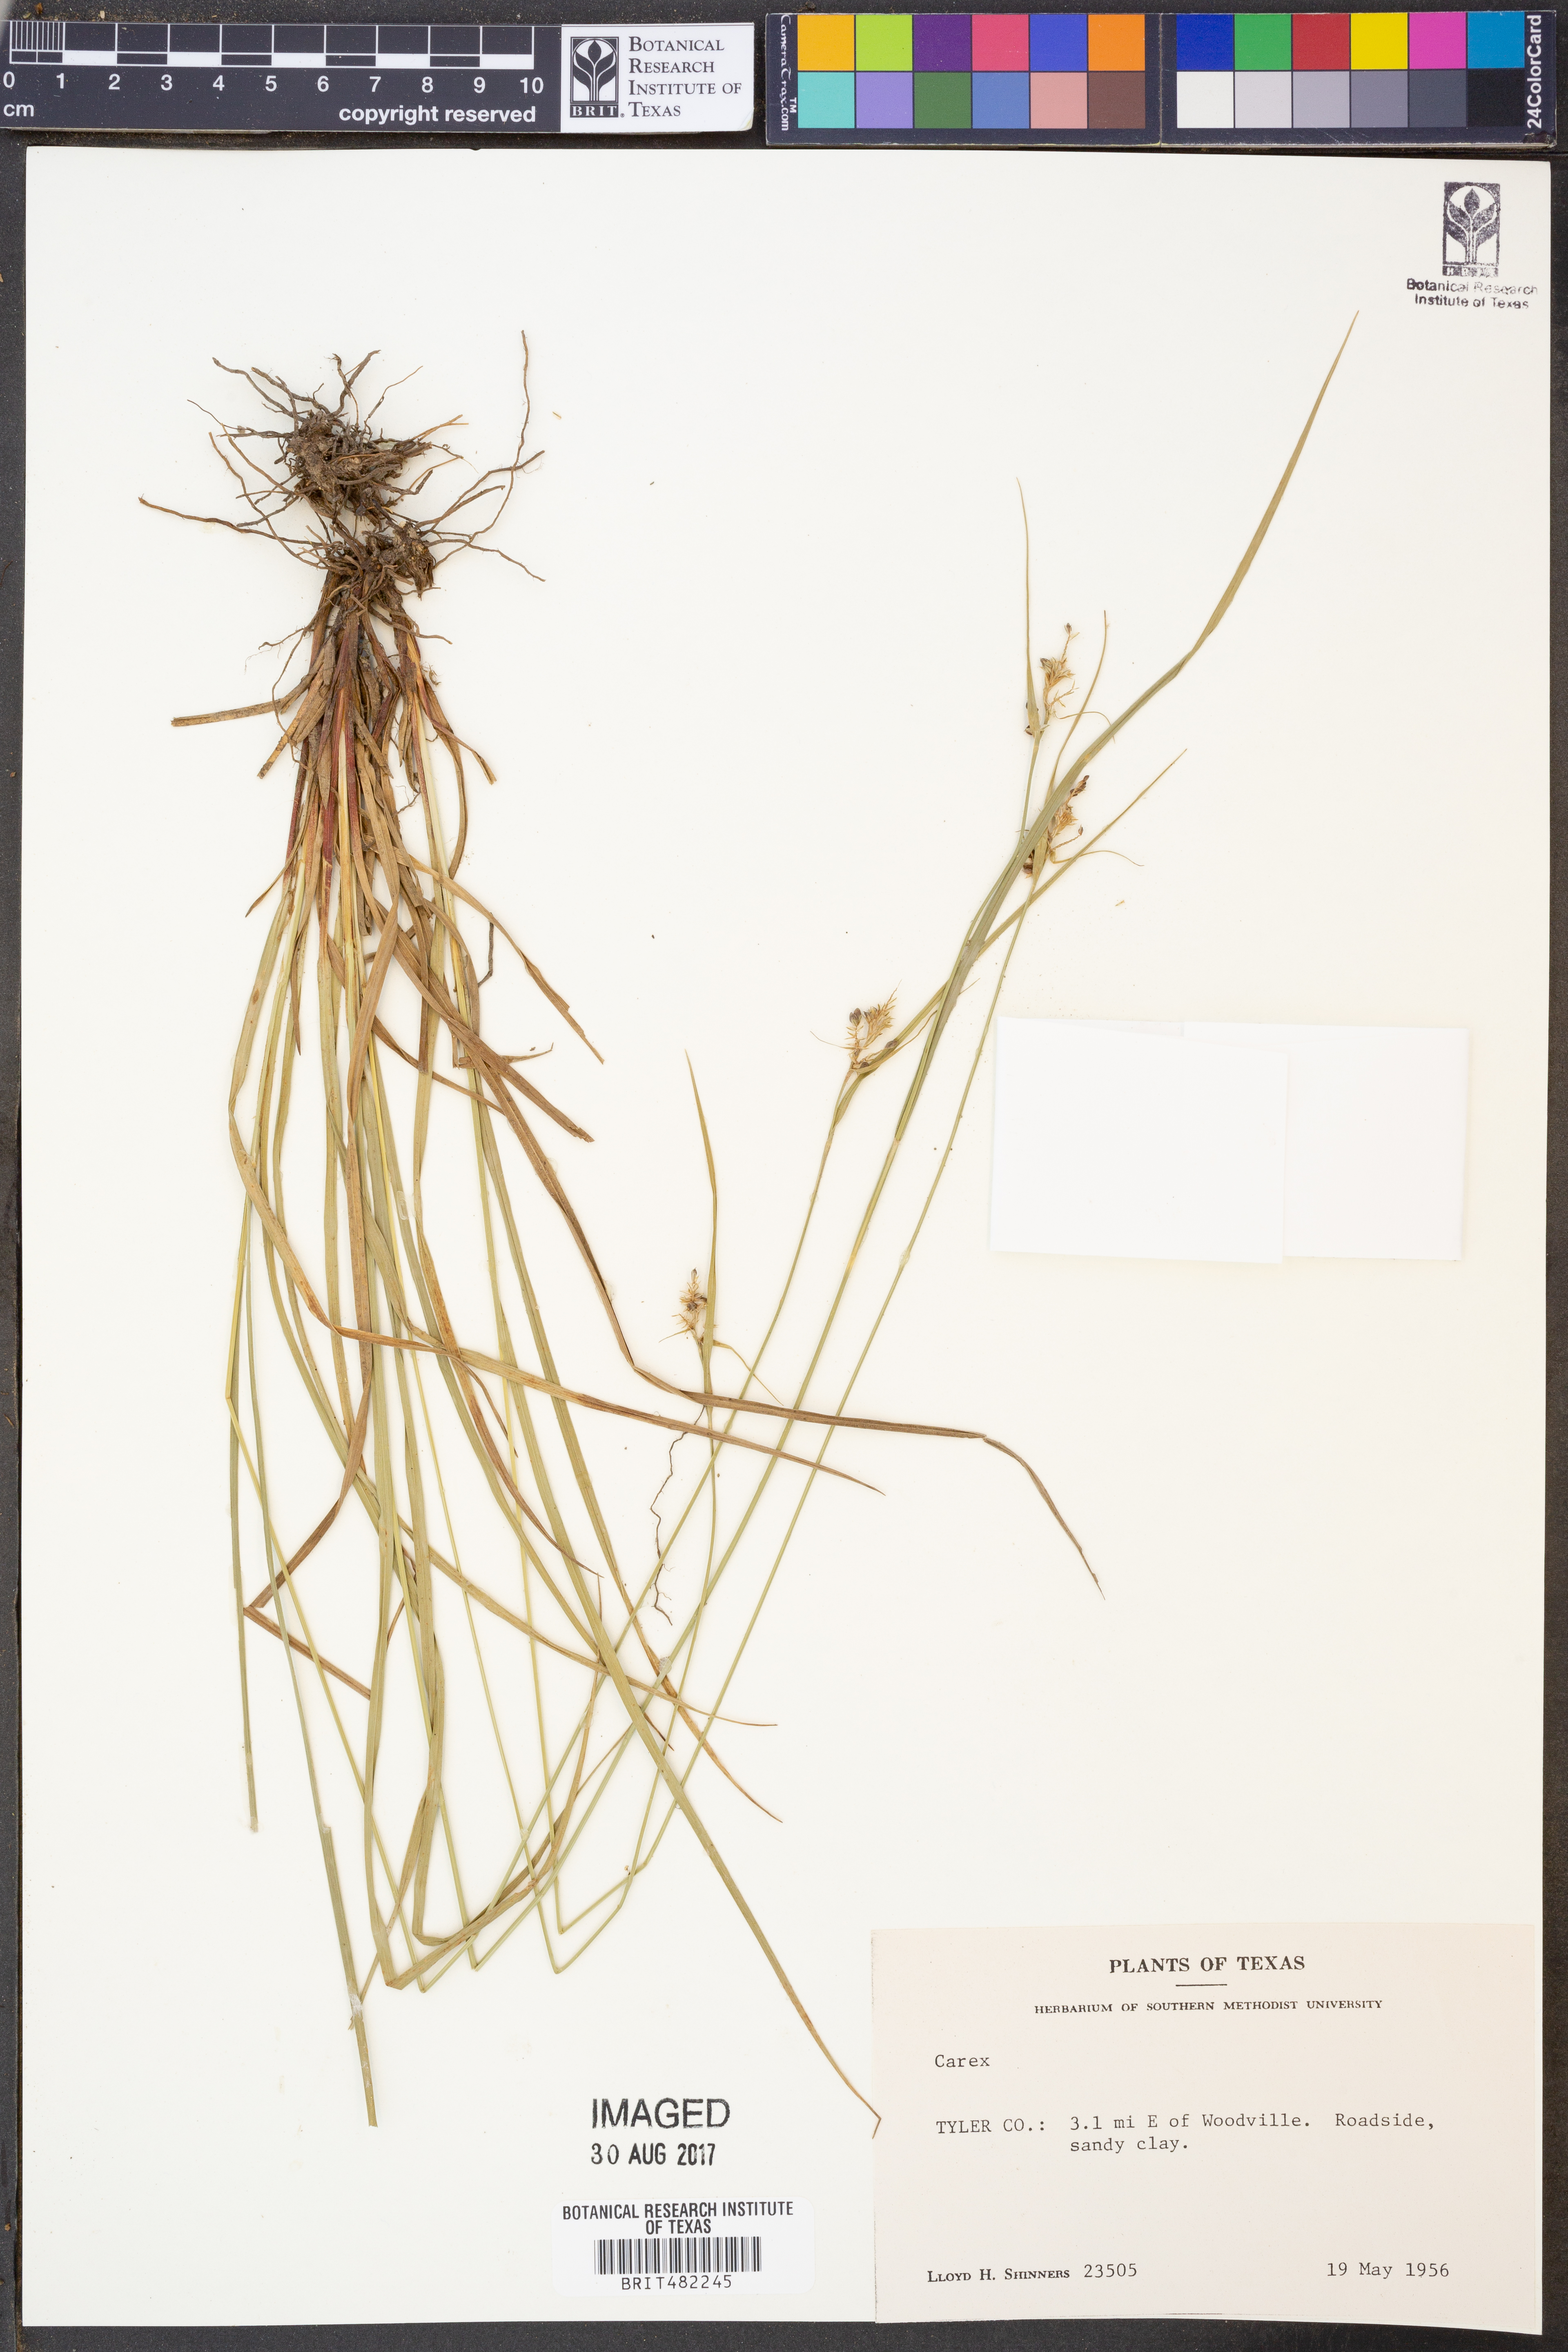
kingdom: Plantae
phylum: Tracheophyta
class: Liliopsida
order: Poales
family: Cyperaceae
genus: Carex
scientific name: Carex
